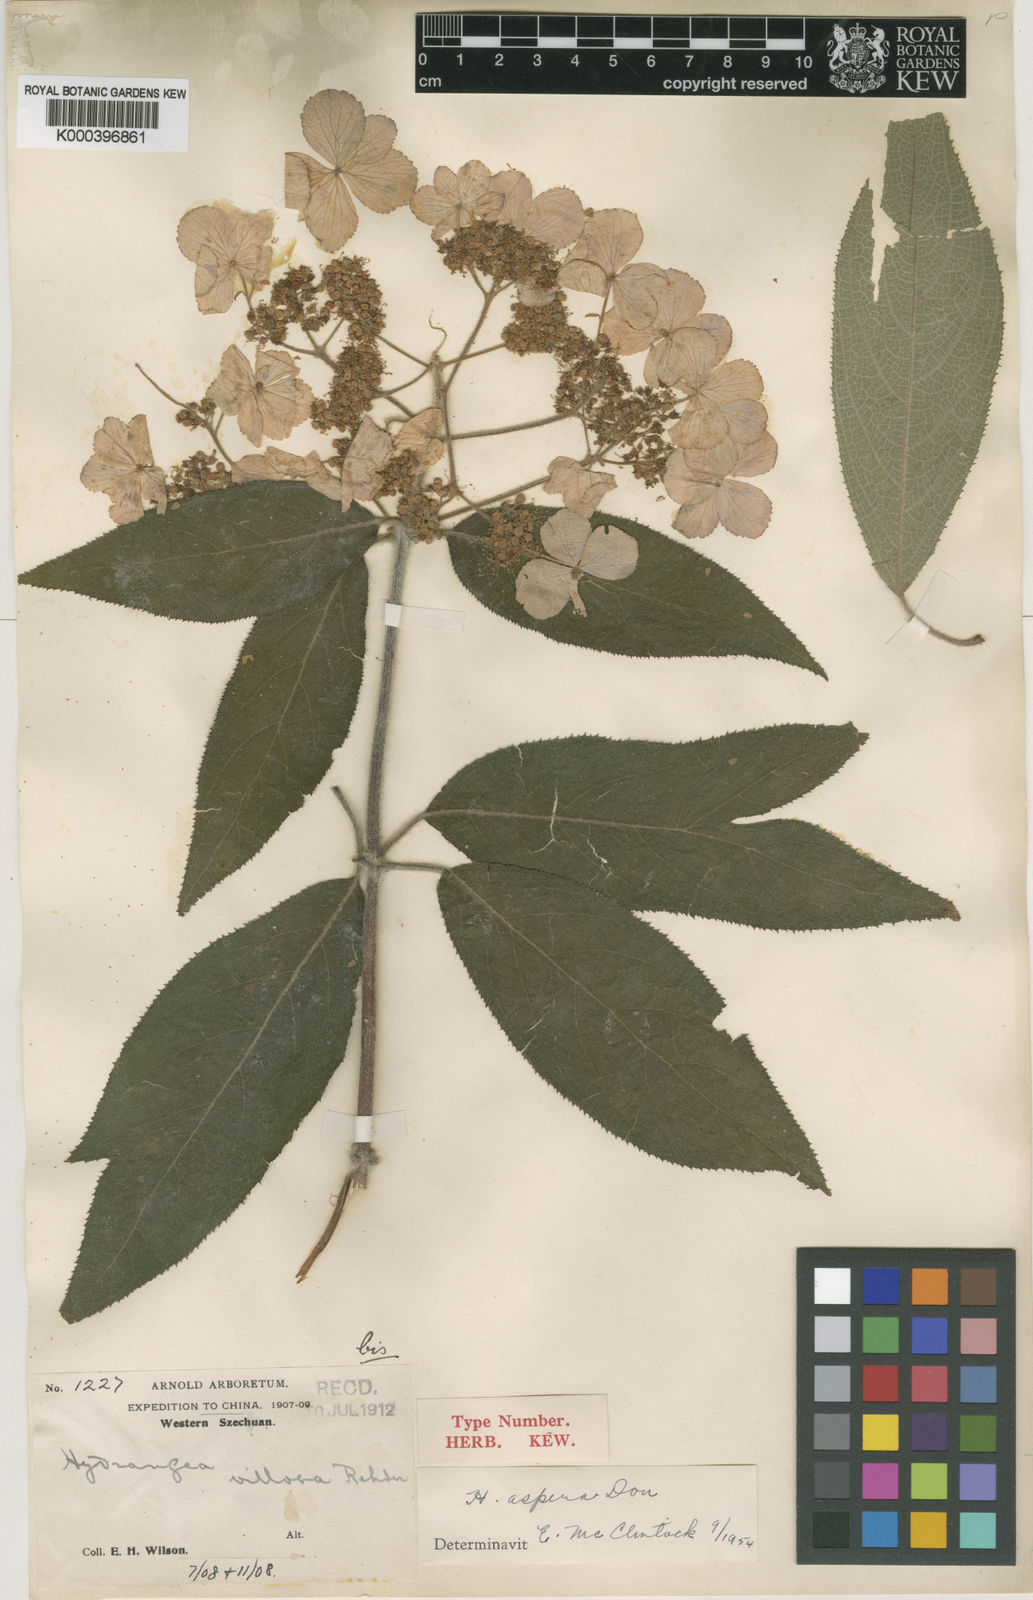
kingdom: Plantae
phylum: Tracheophyta
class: Magnoliopsida
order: Cornales
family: Hydrangeaceae
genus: Hydrangea
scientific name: Hydrangea aspera
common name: Rough-leaf hydrangea
